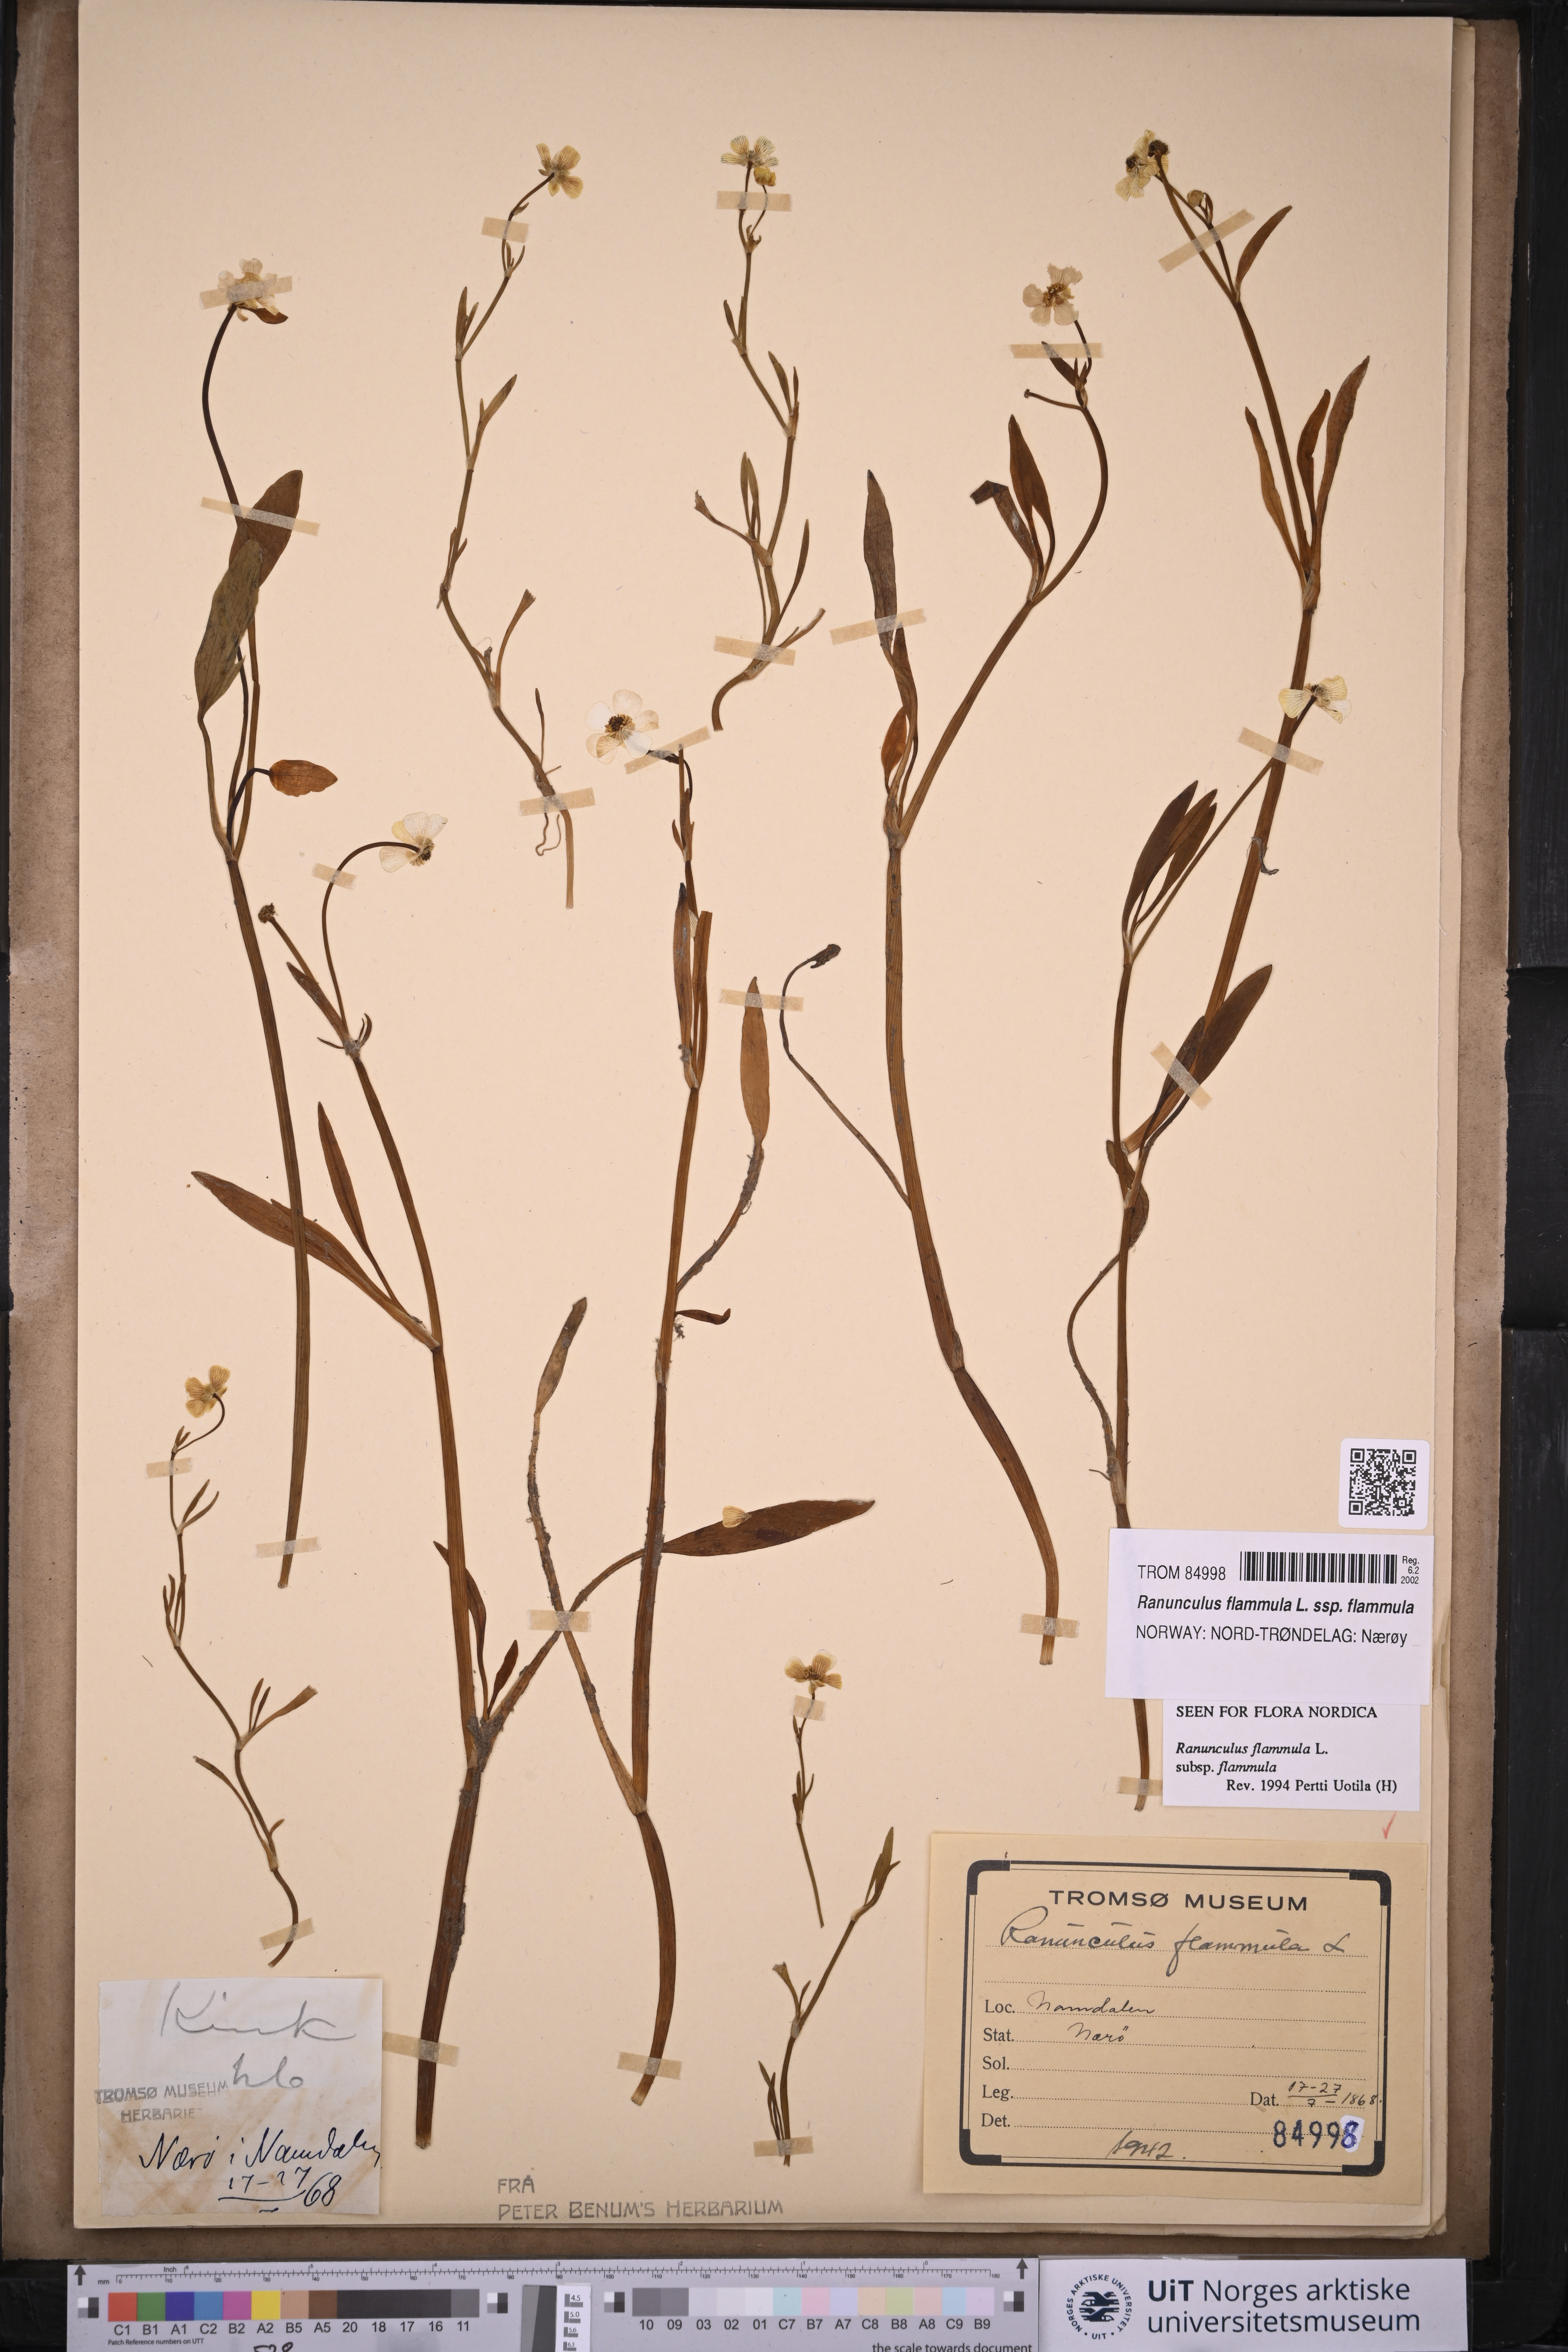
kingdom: Plantae
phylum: Tracheophyta
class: Magnoliopsida
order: Ranunculales
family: Ranunculaceae
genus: Ranunculus
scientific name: Ranunculus flammula
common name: Lesser spearwort
